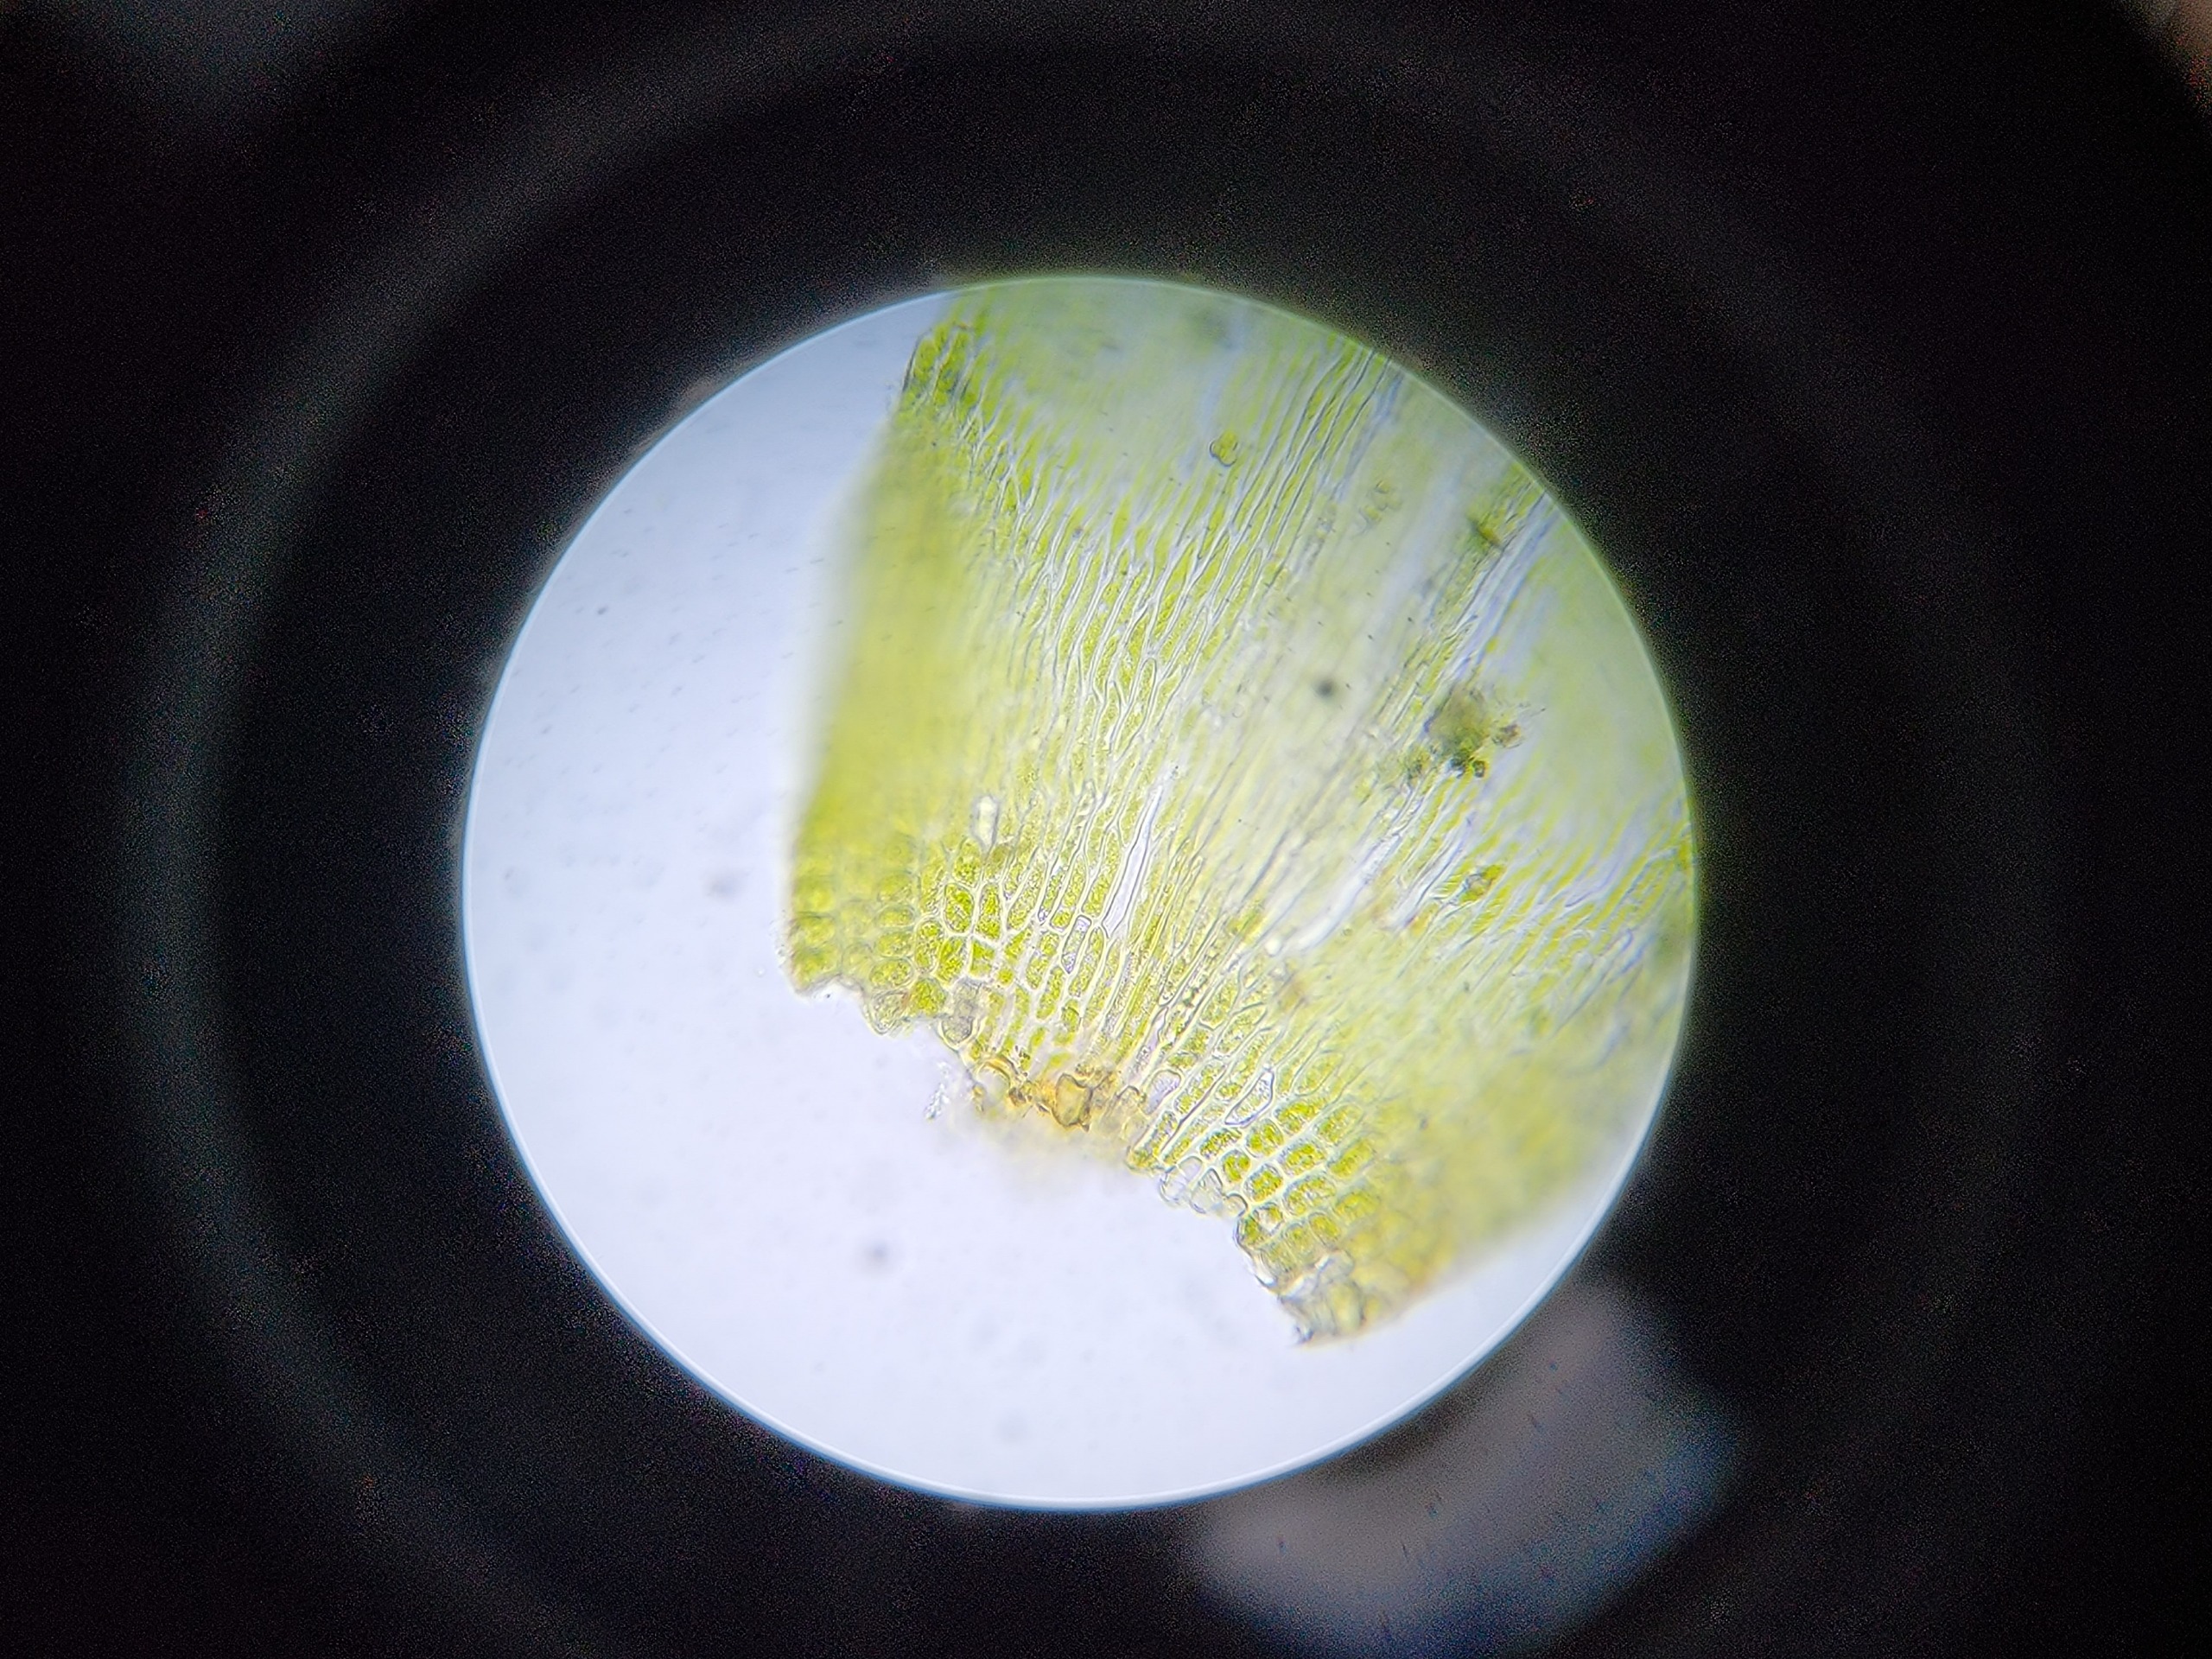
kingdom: Plantae
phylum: Bryophyta
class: Bryopsida
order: Hypnales
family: Pylaisiaceae
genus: Pylaisia
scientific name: Pylaisia polyantha
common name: Mangefrugtet aspemos
